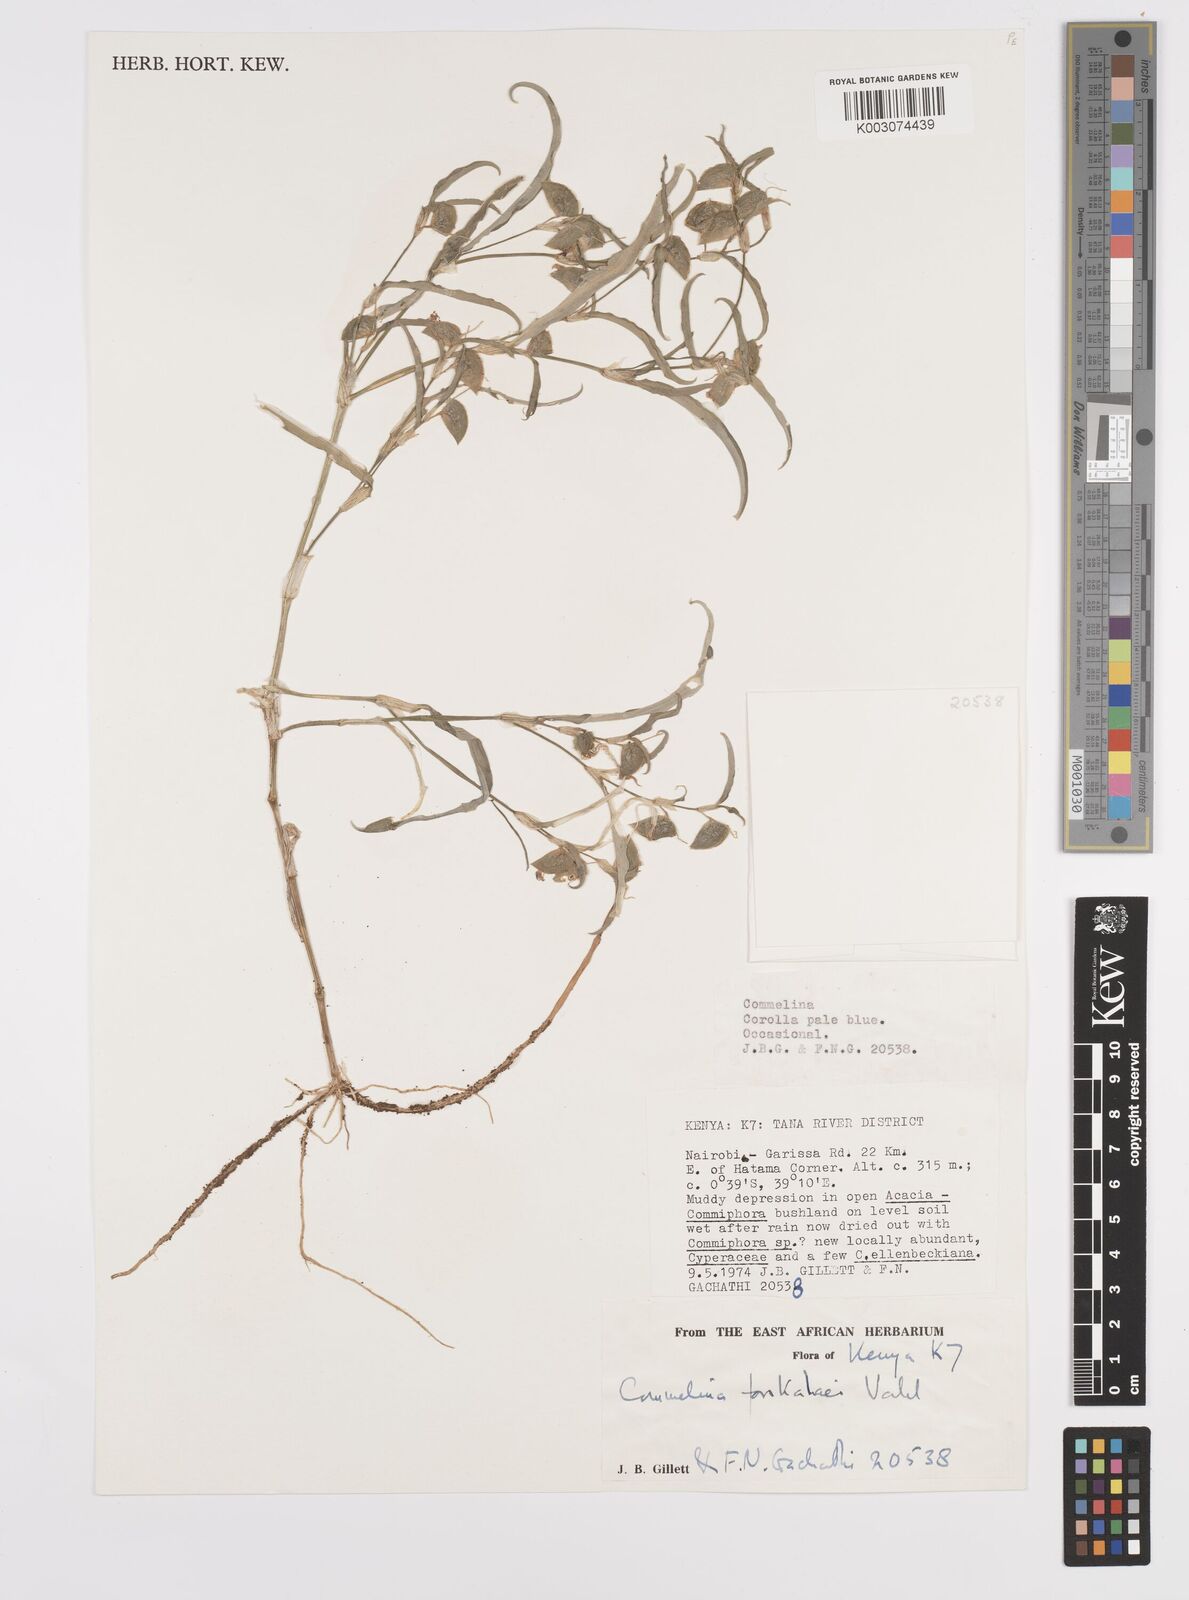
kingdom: Plantae
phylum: Tracheophyta
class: Liliopsida
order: Commelinales
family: Commelinaceae
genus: Commelina
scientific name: Commelina forskaolii
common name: Rat's ear
